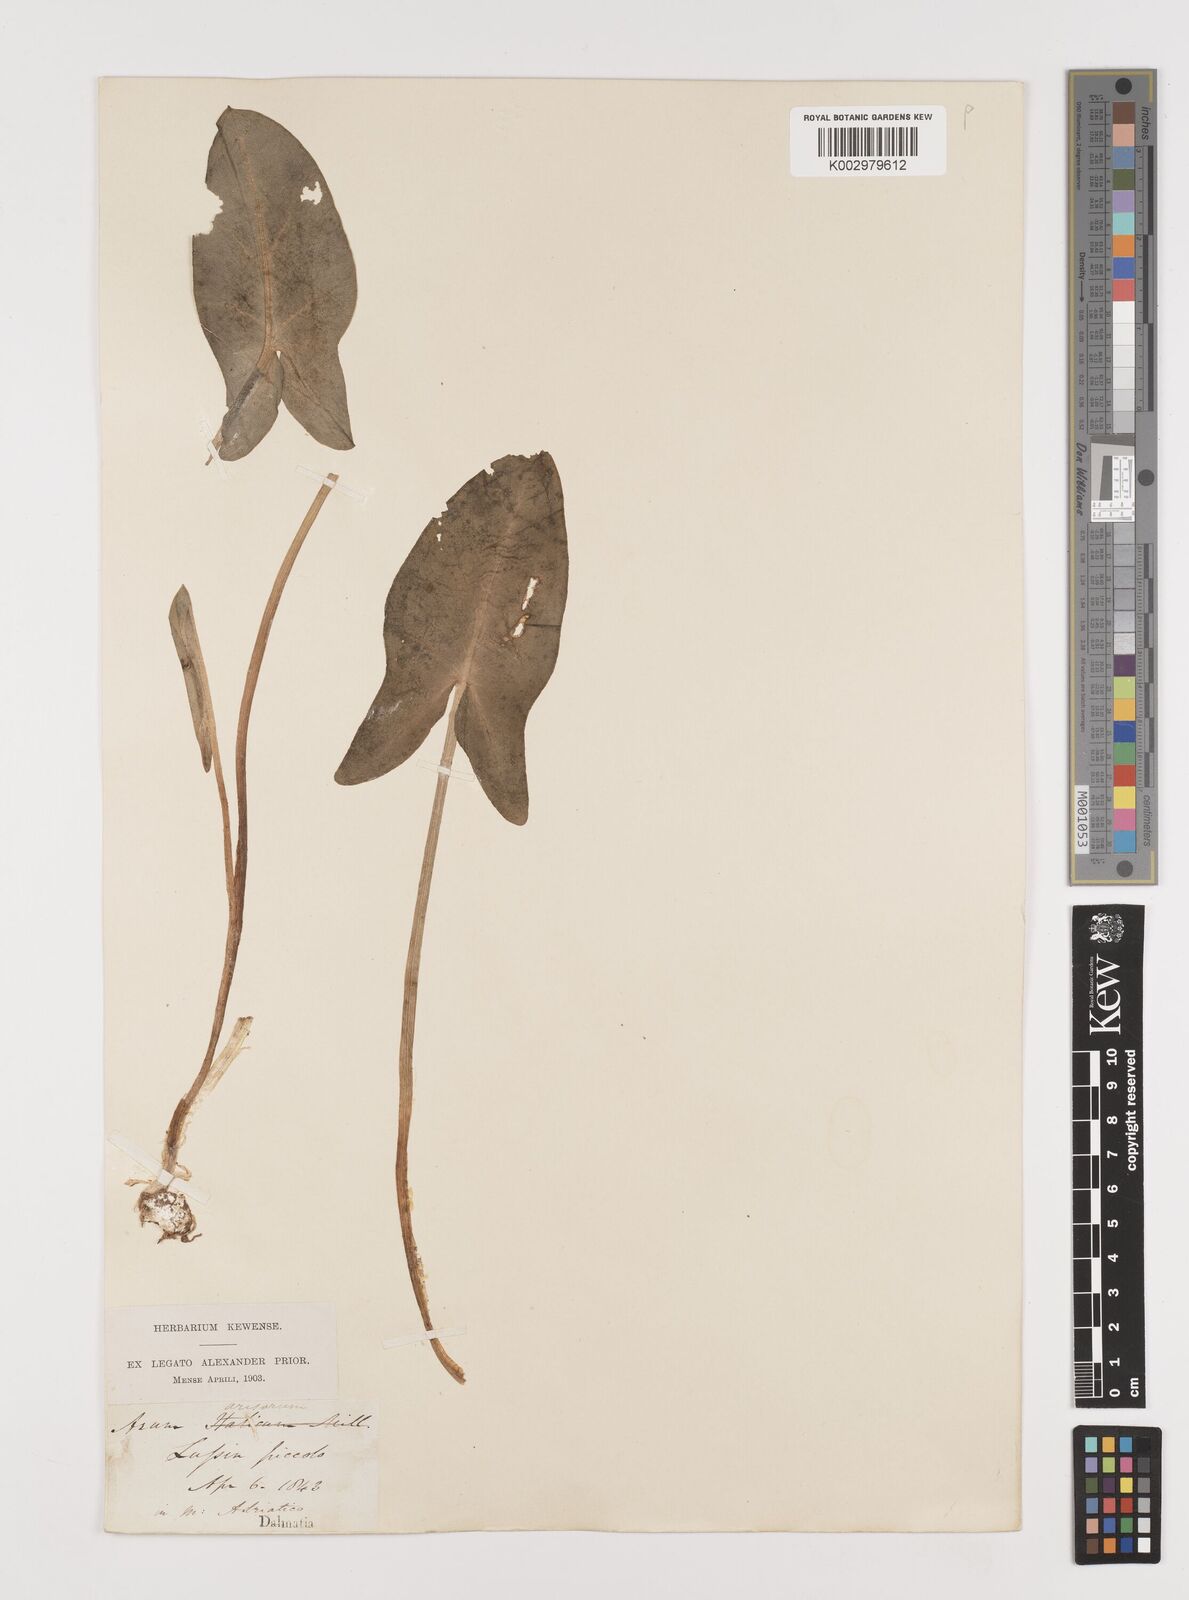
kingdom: Plantae
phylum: Tracheophyta
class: Liliopsida
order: Alismatales
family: Araceae
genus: Arisarum
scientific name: Arisarum vulgare
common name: Common arisarum
